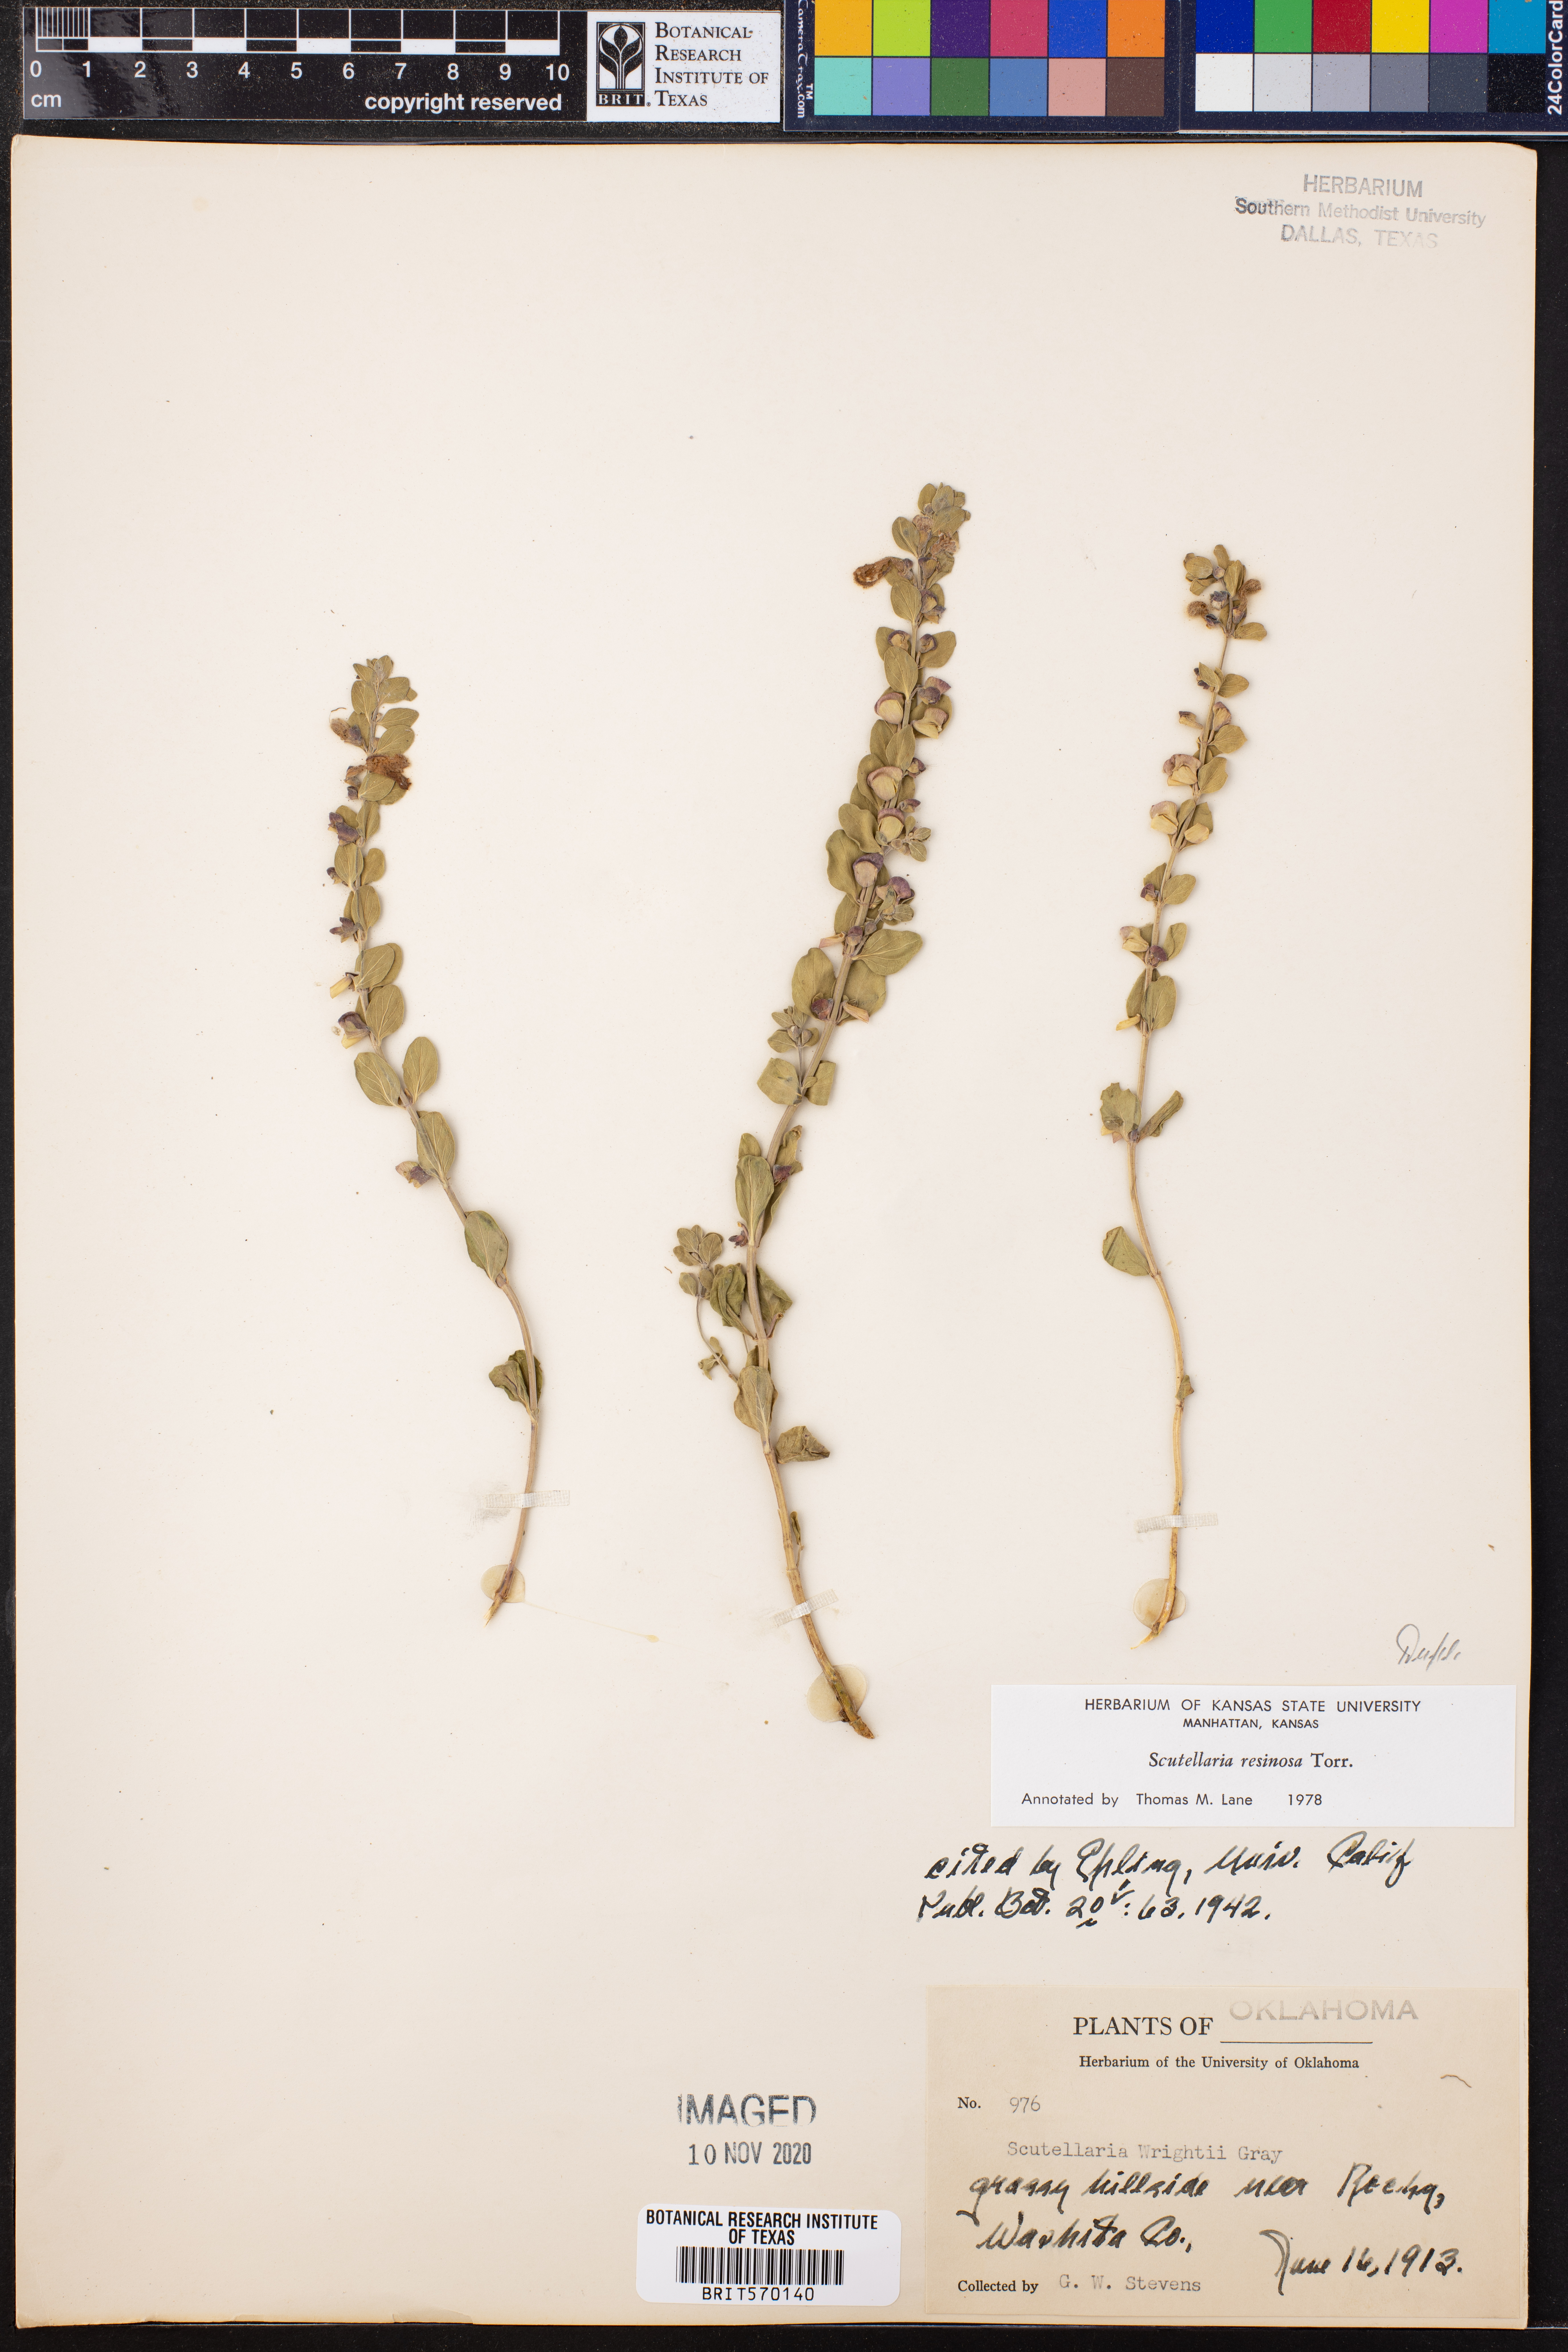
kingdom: Plantae
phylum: Tracheophyta
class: Magnoliopsida
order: Lamiales
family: Lamiaceae
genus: Scutellaria
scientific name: Scutellaria resinosa
